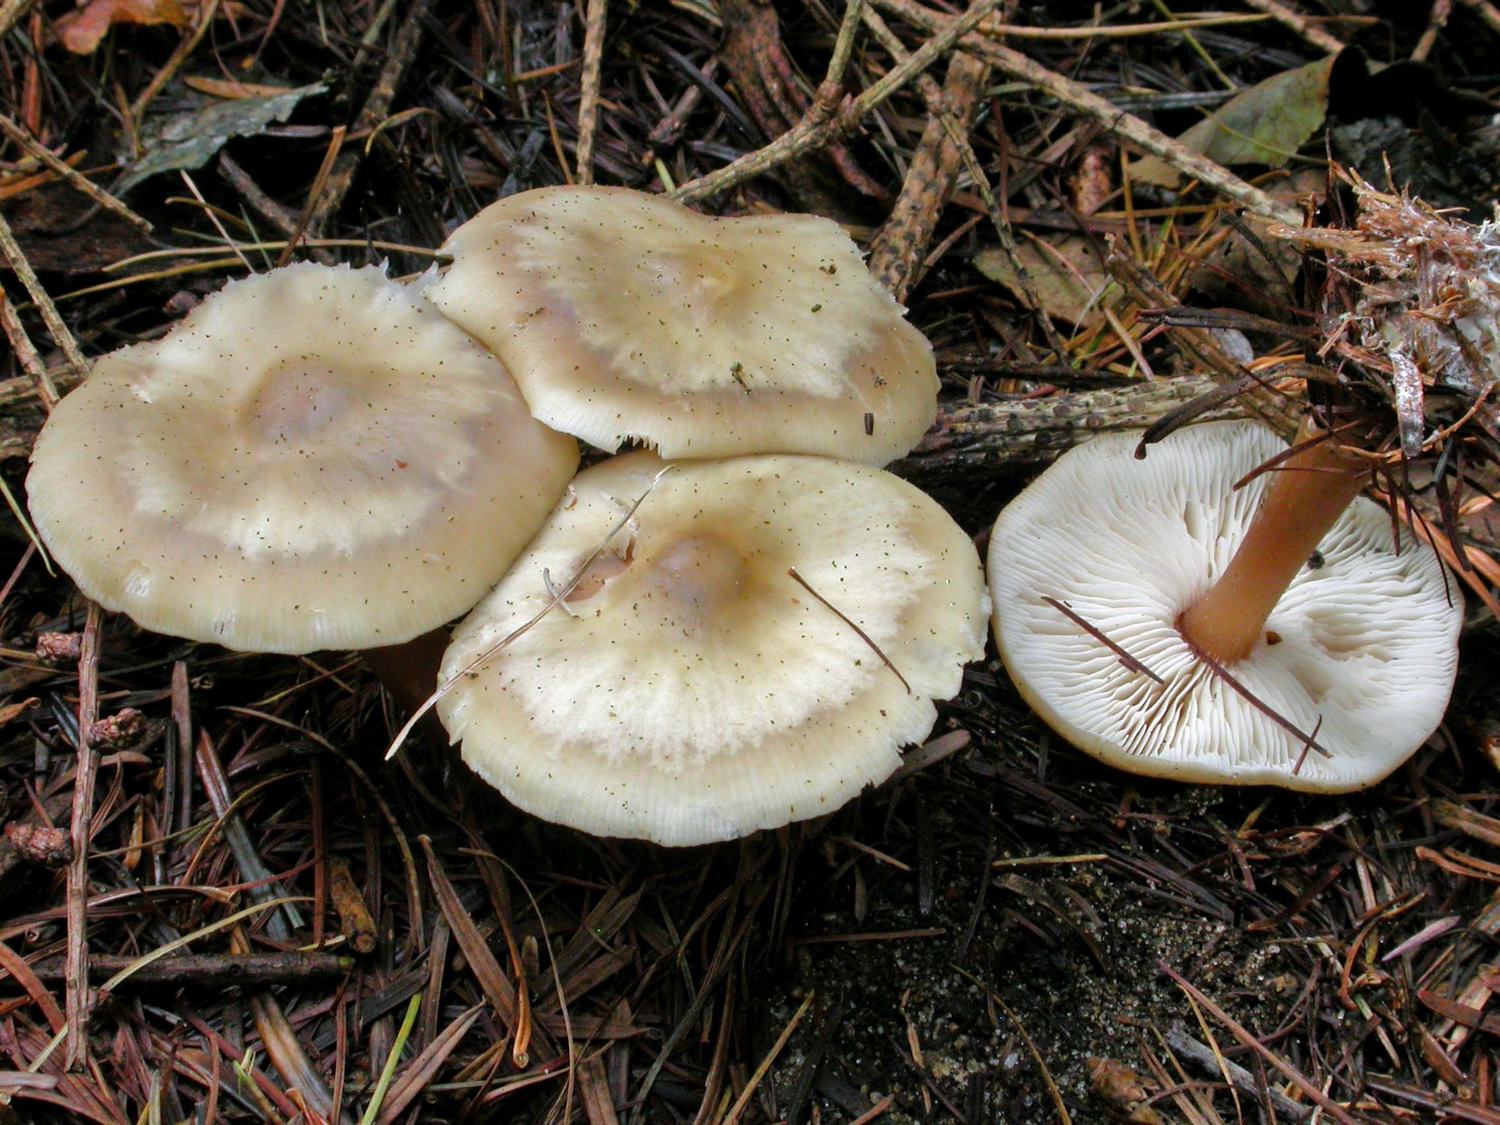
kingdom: Fungi
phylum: Basidiomycota
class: Agaricomycetes
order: Agaricales
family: Omphalotaceae
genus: Rhodocollybia
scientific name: Rhodocollybia asema
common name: horngrå fladhat
